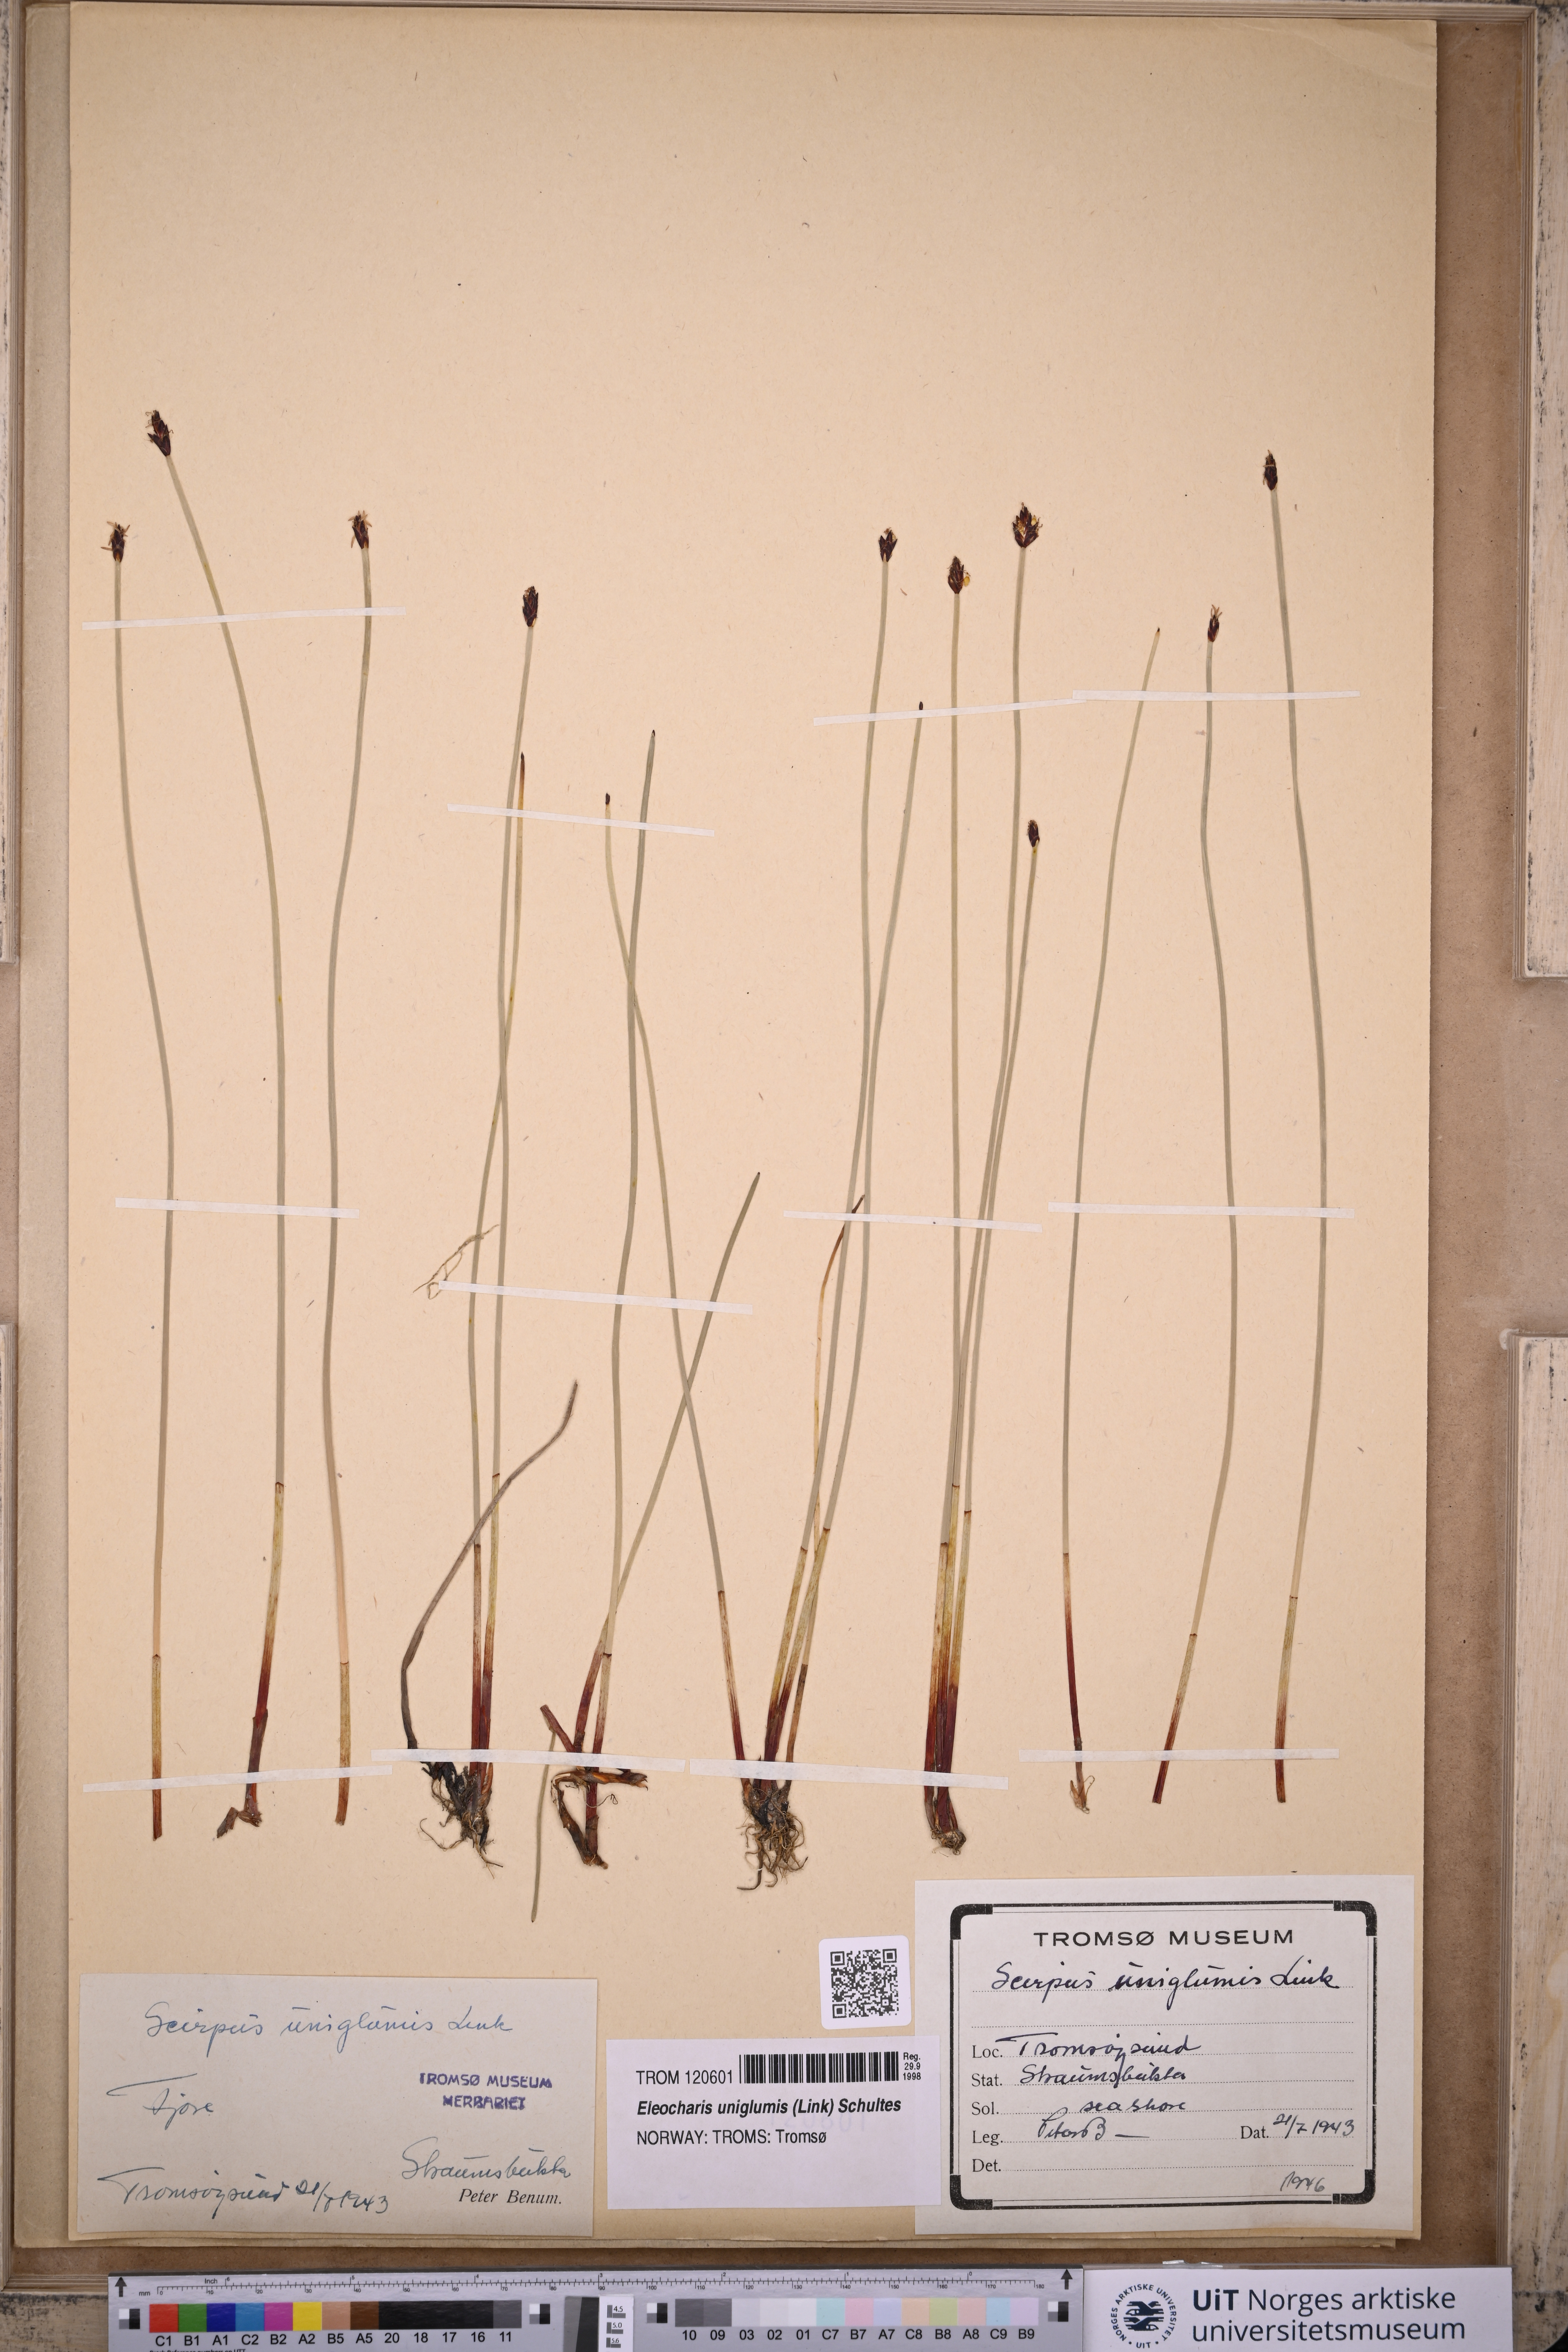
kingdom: Plantae
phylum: Tracheophyta
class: Liliopsida
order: Poales
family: Cyperaceae
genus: Eleocharis
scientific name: Eleocharis uniglumis
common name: Slender spike-rush
